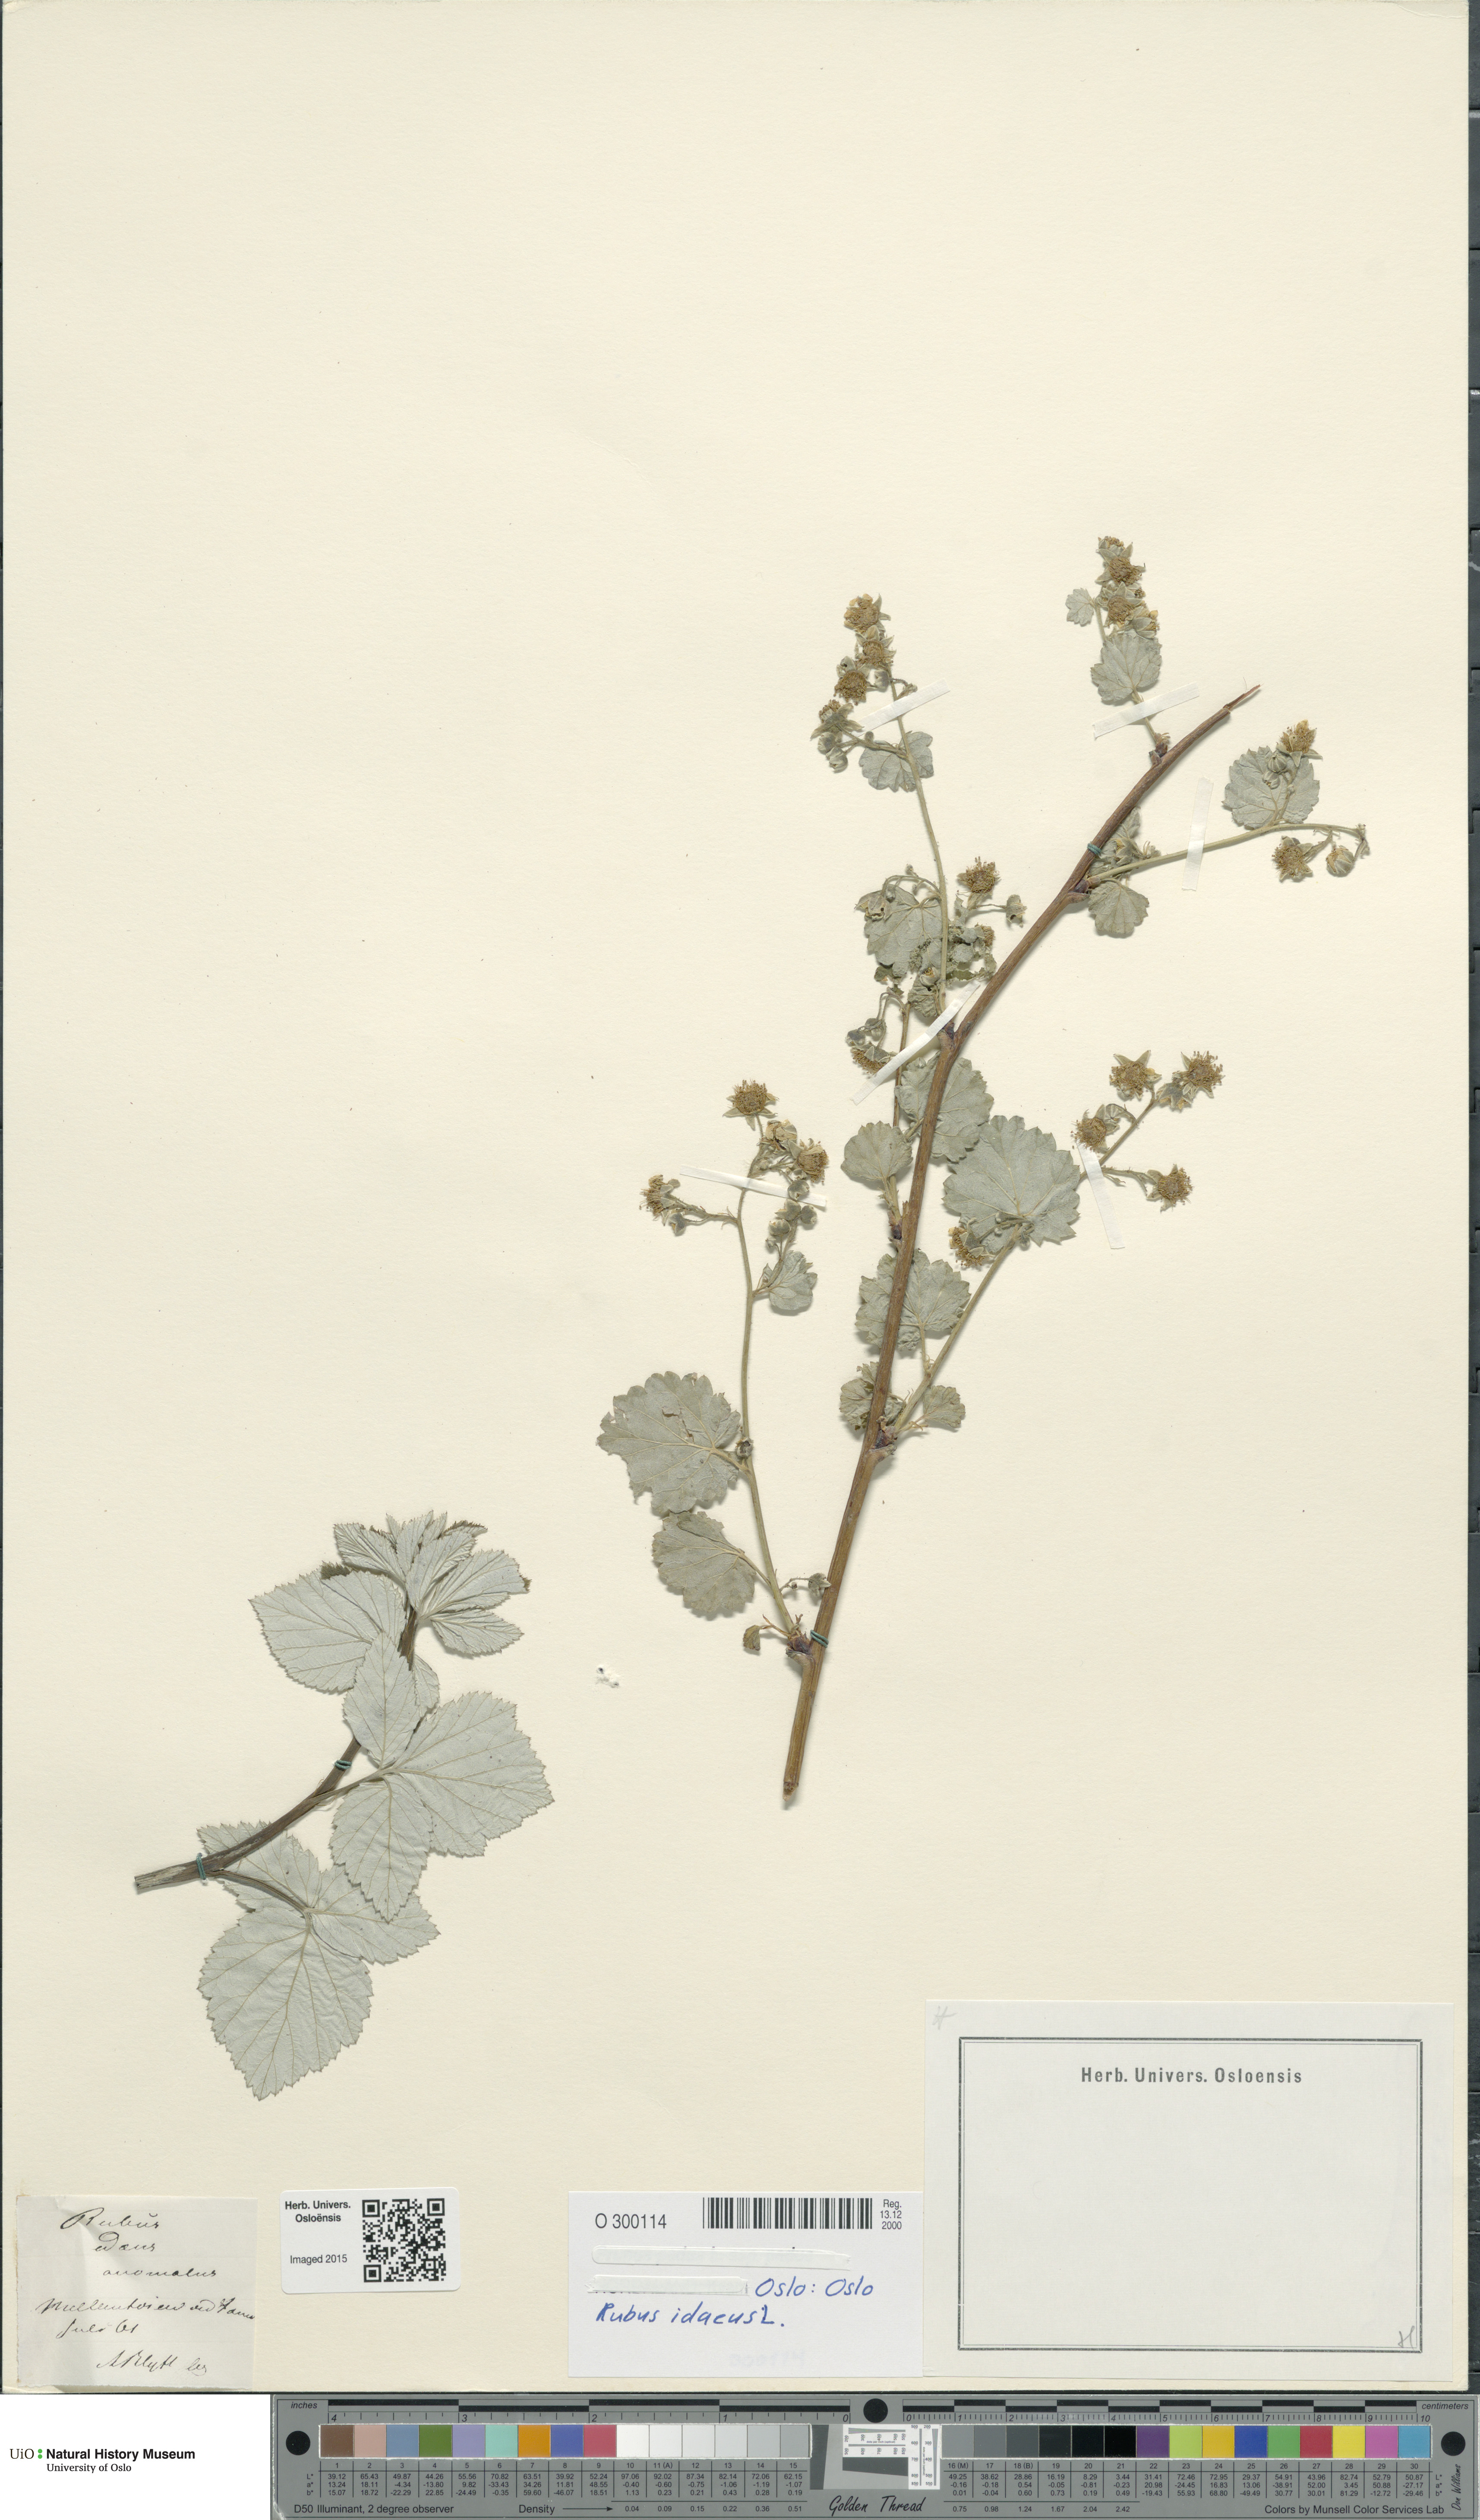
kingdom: Plantae
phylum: Tracheophyta
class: Magnoliopsida
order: Rosales
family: Rosaceae
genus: Rubus
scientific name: Rubus idaeus
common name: Raspberry
